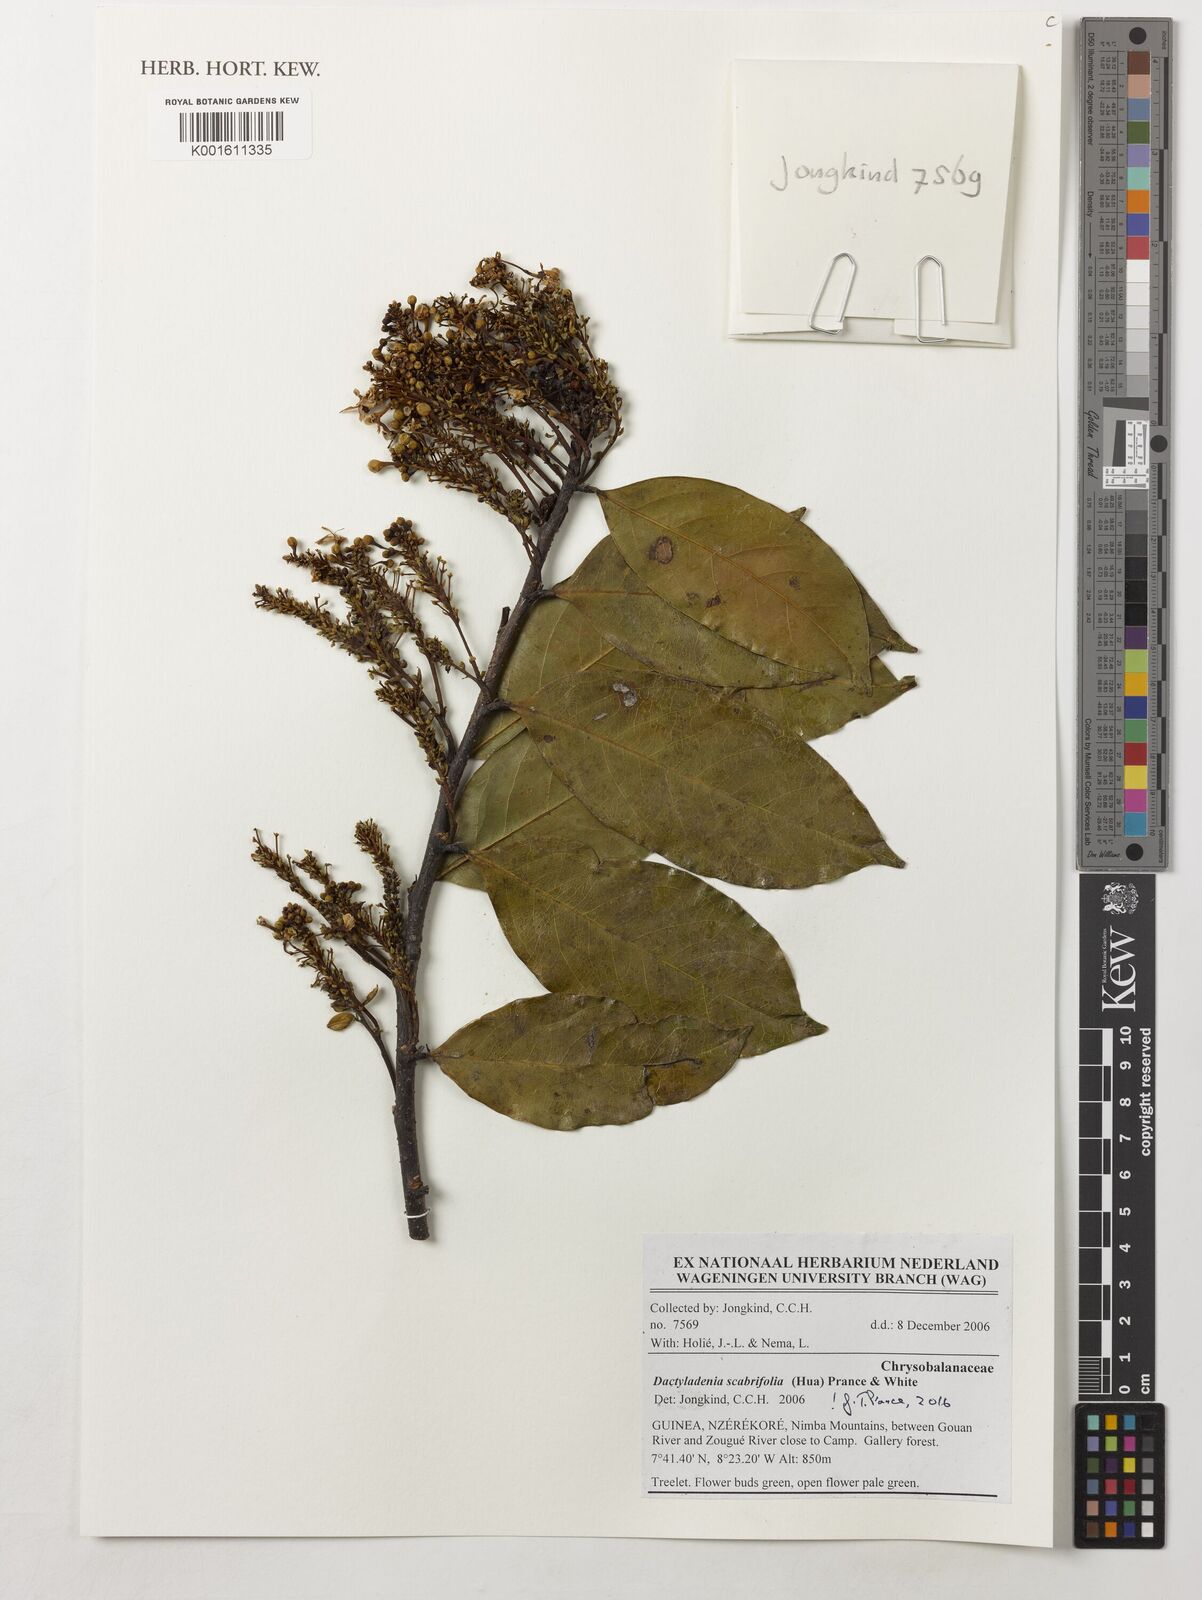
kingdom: Plantae
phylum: Tracheophyta
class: Magnoliopsida
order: Malpighiales
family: Chrysobalanaceae
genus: Dactyladenia
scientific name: Dactyladenia scabrifolia
